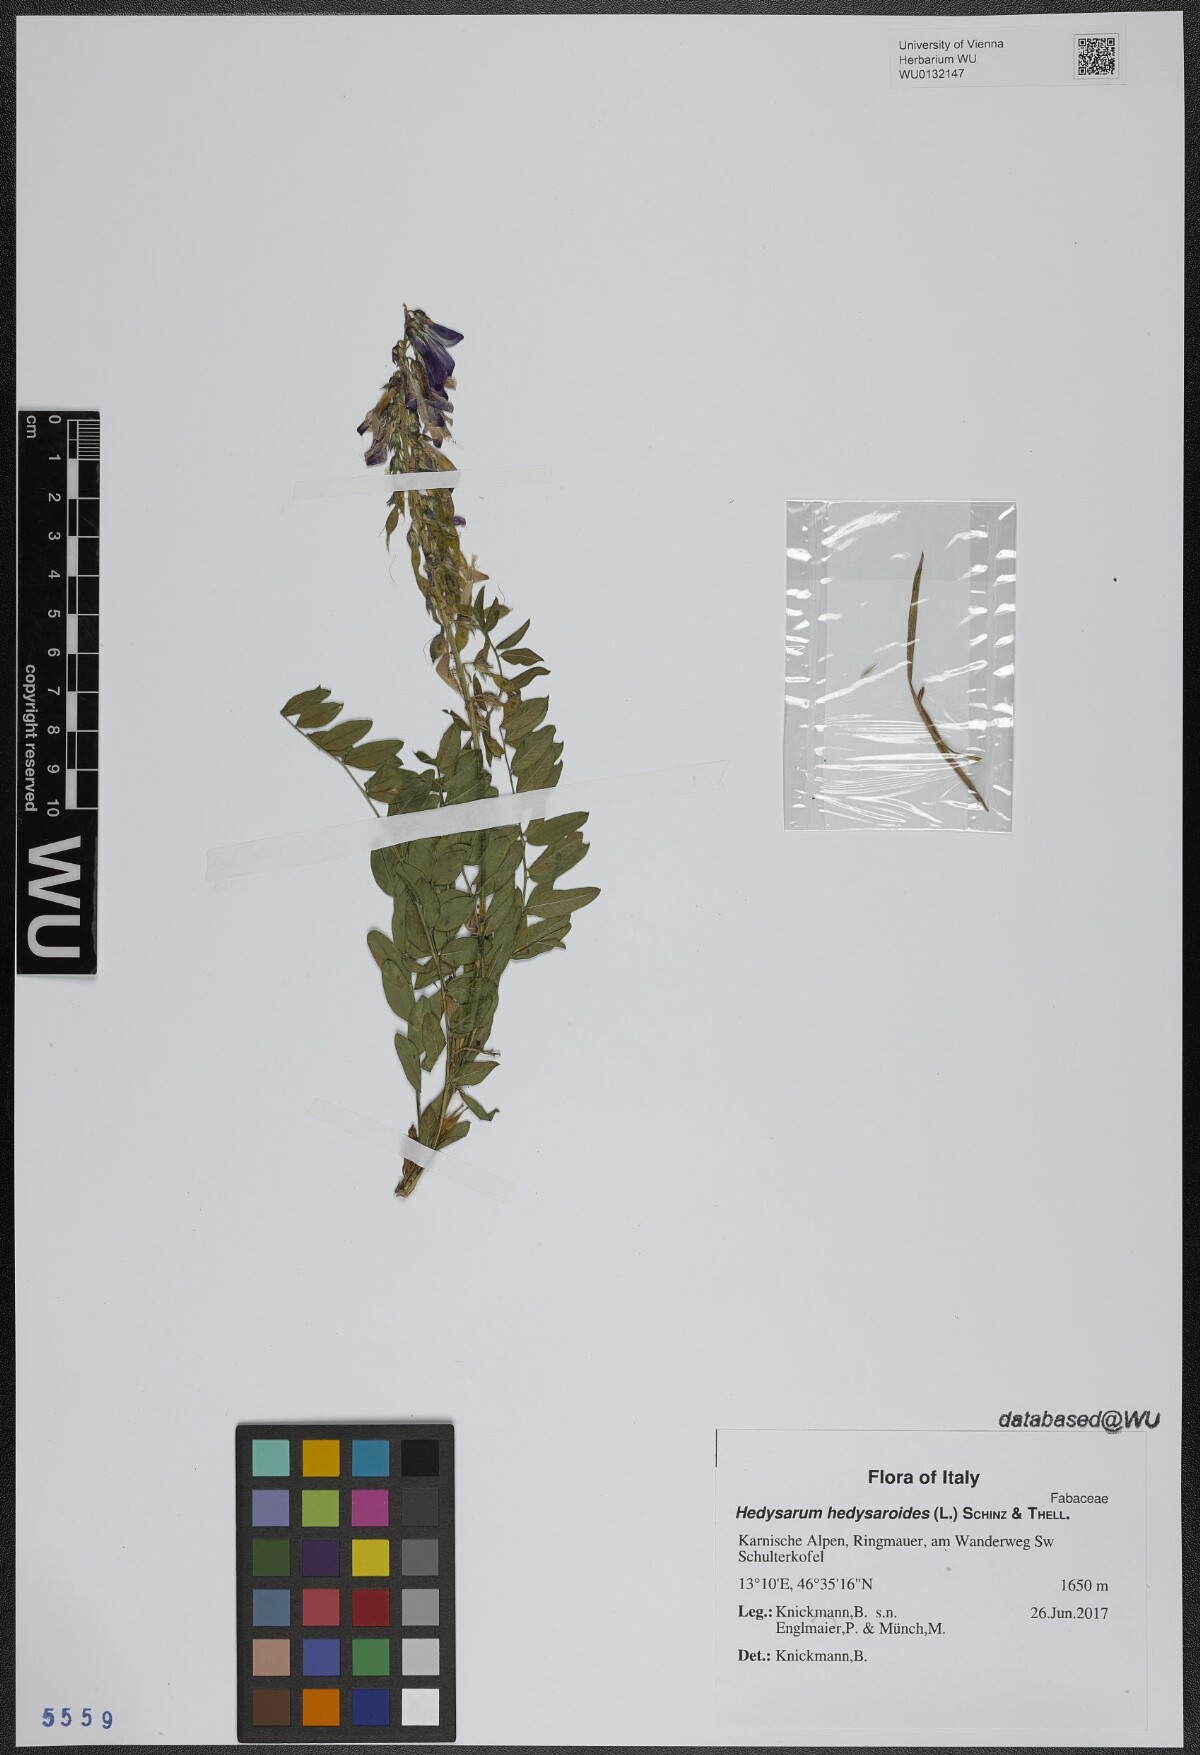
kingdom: Plantae
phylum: Tracheophyta
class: Magnoliopsida
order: Fabales
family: Fabaceae
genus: Hedysarum
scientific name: Hedysarum hedysaroides
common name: Alpine french-honeysuckle
